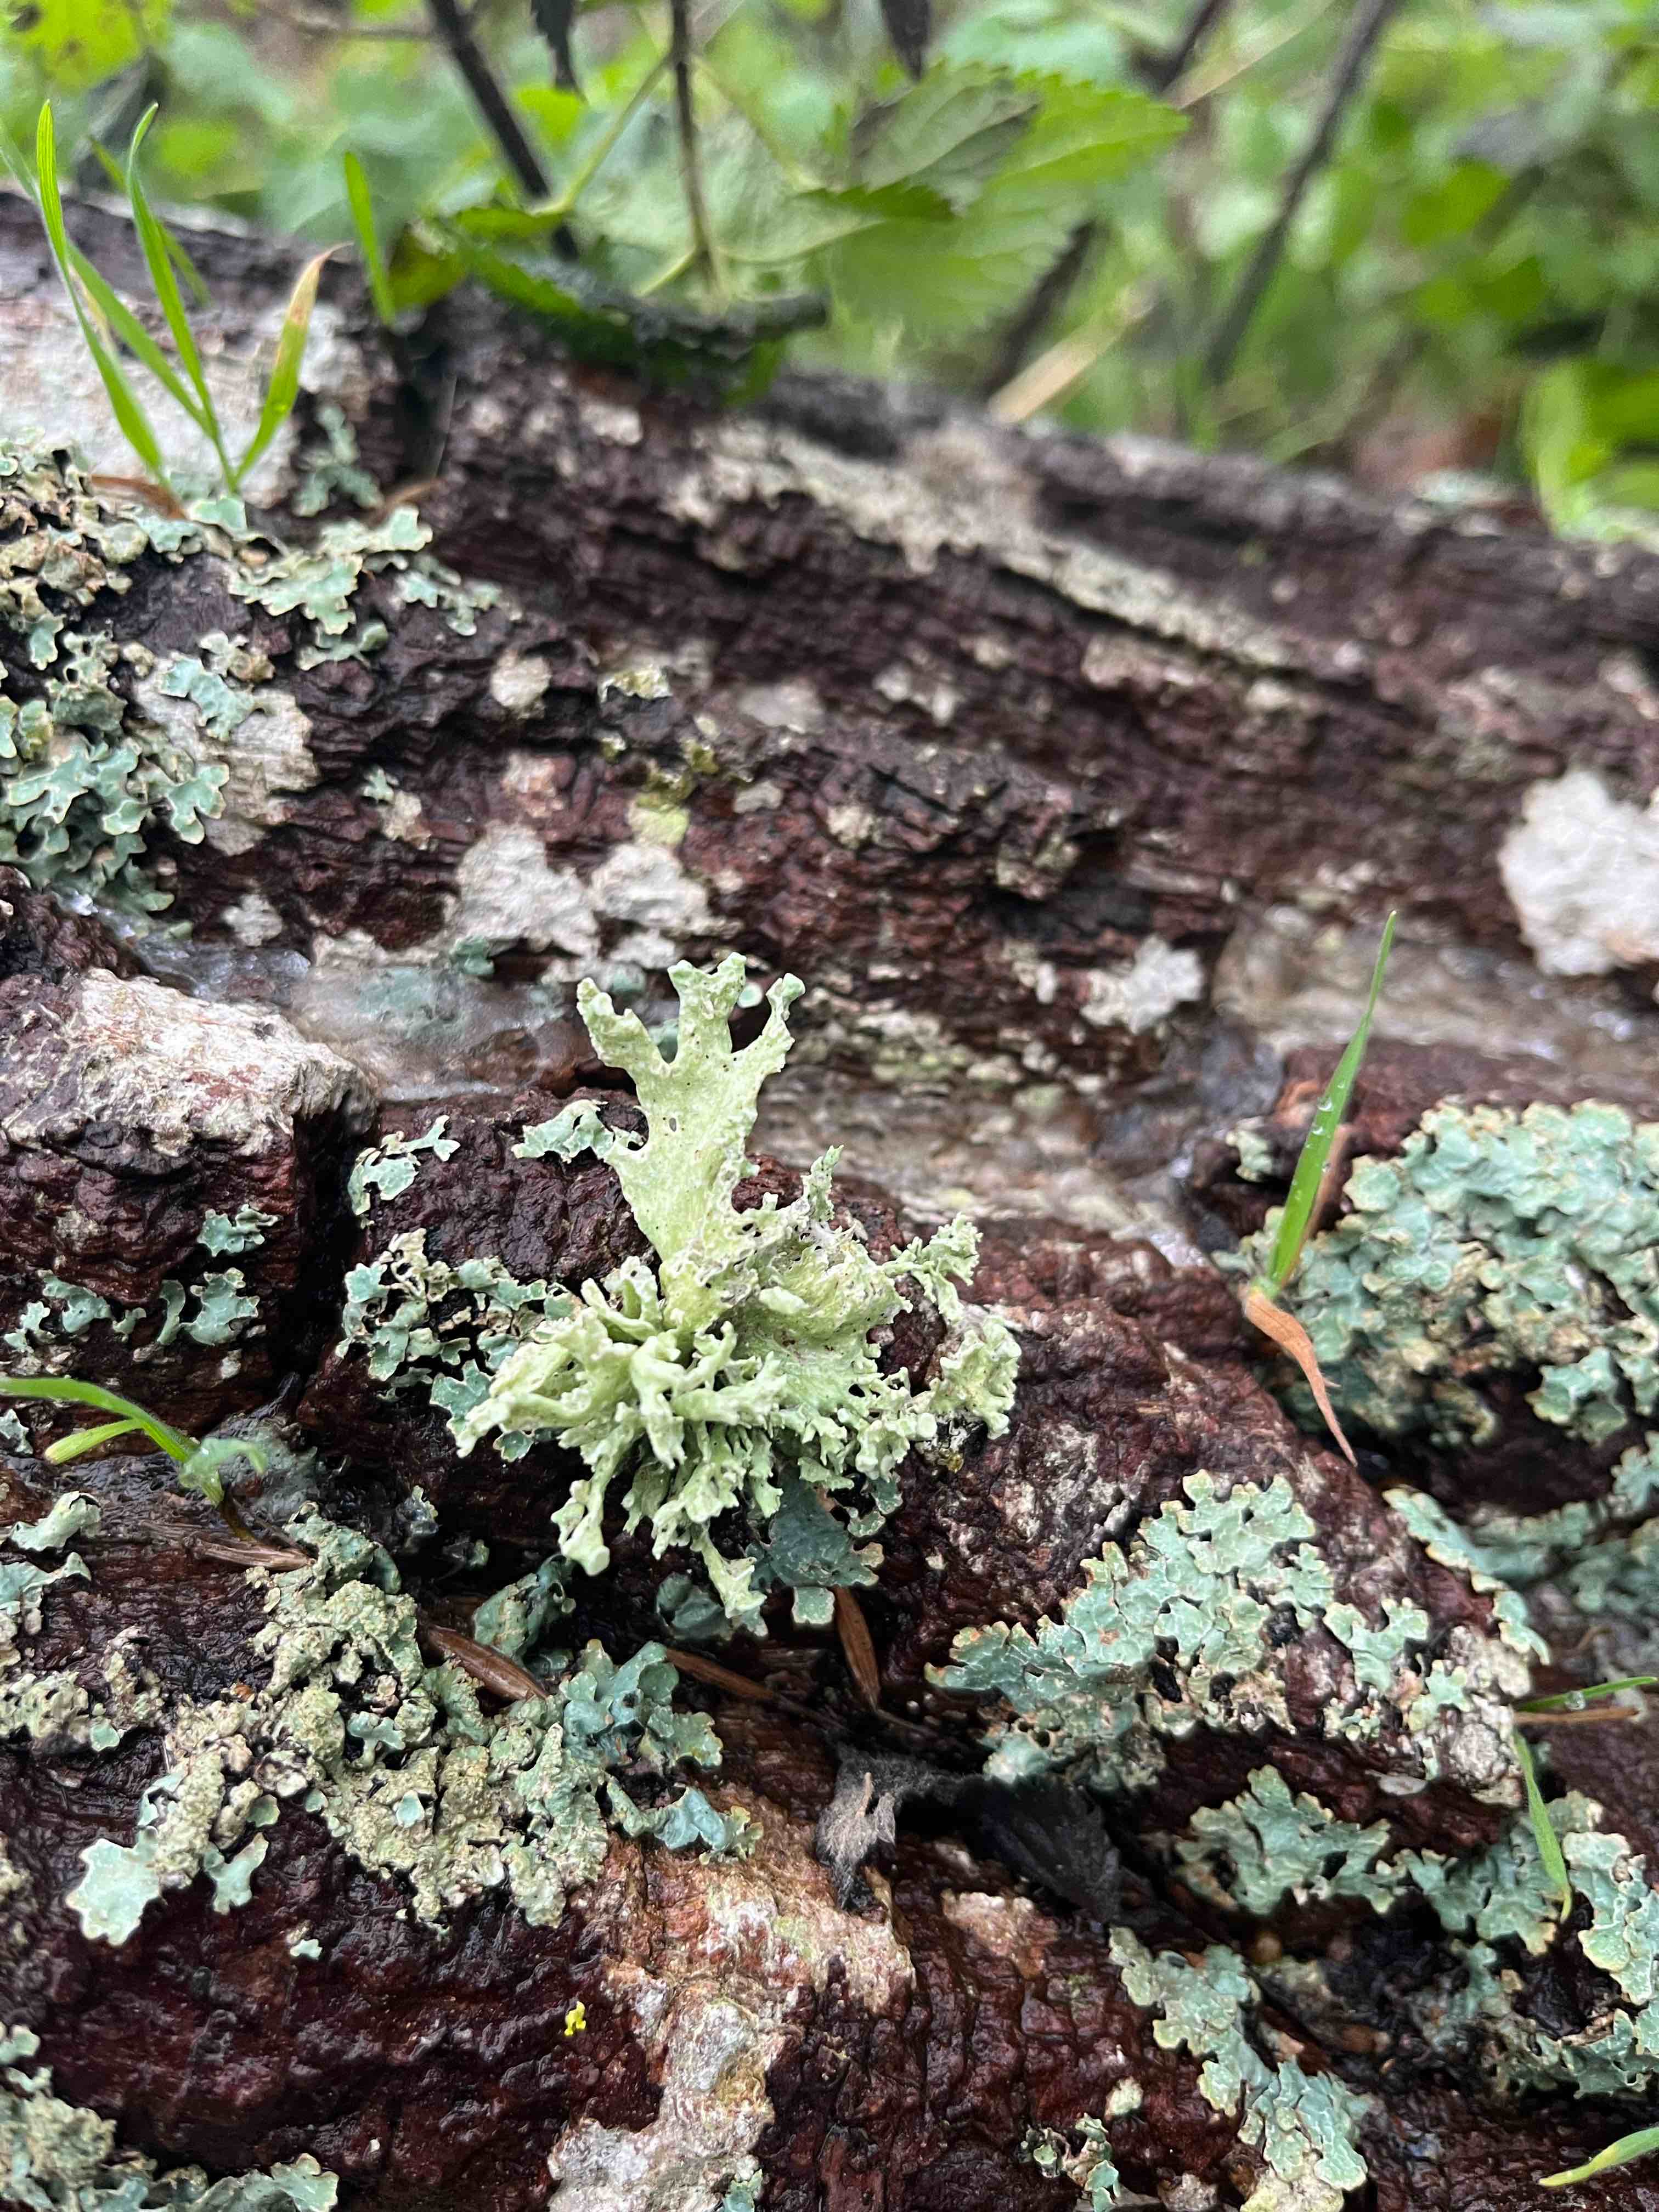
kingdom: Fungi
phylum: Ascomycota
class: Lecanoromycetes
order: Lecanorales
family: Ramalinaceae
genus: Ramalina
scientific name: Ramalina fastigiata
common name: tue-grenlav
